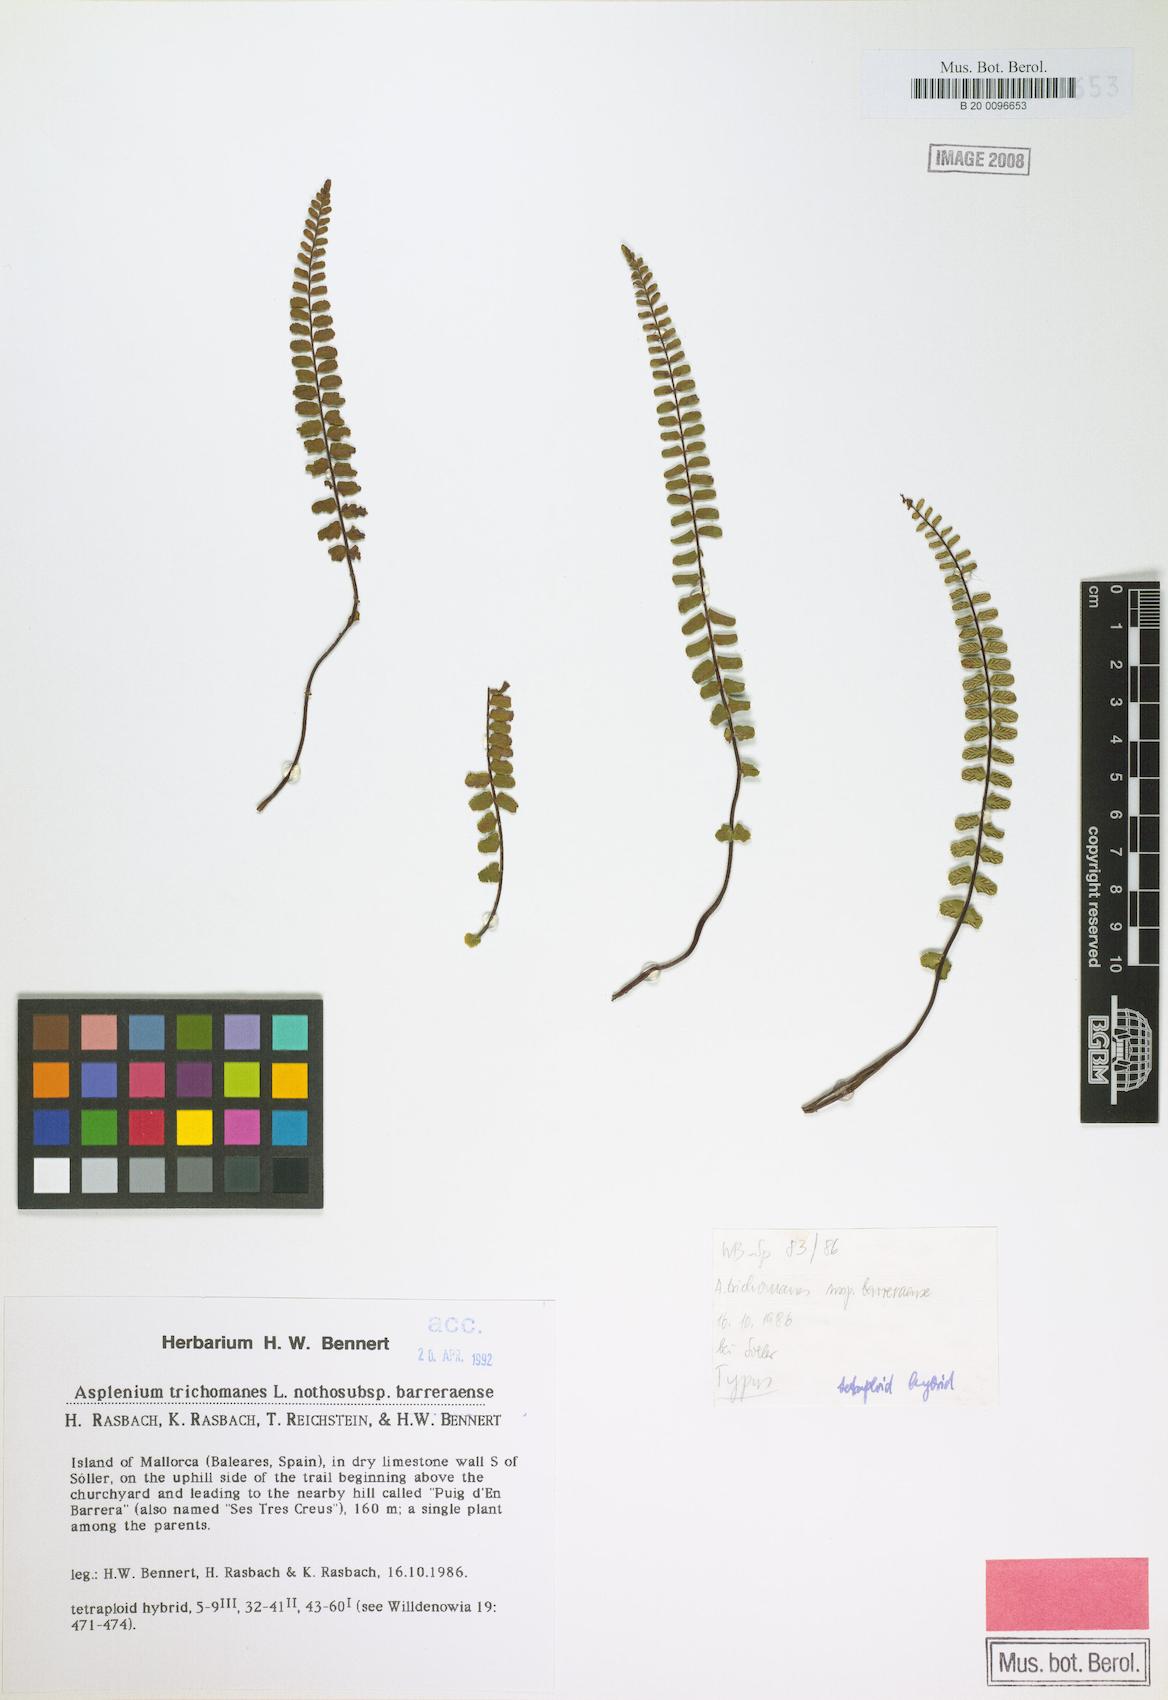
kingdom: Plantae
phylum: Tracheophyta
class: Polypodiopsida
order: Polypodiales
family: Aspleniaceae
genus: Asplenium
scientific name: Asplenium barreraense
